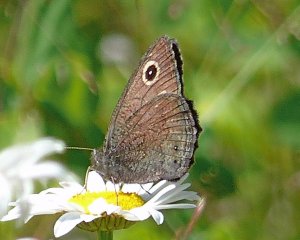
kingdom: Animalia
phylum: Arthropoda
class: Insecta
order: Lepidoptera
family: Nymphalidae
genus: Cercyonis
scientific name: Cercyonis oetus
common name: Small Wood-Nymph
